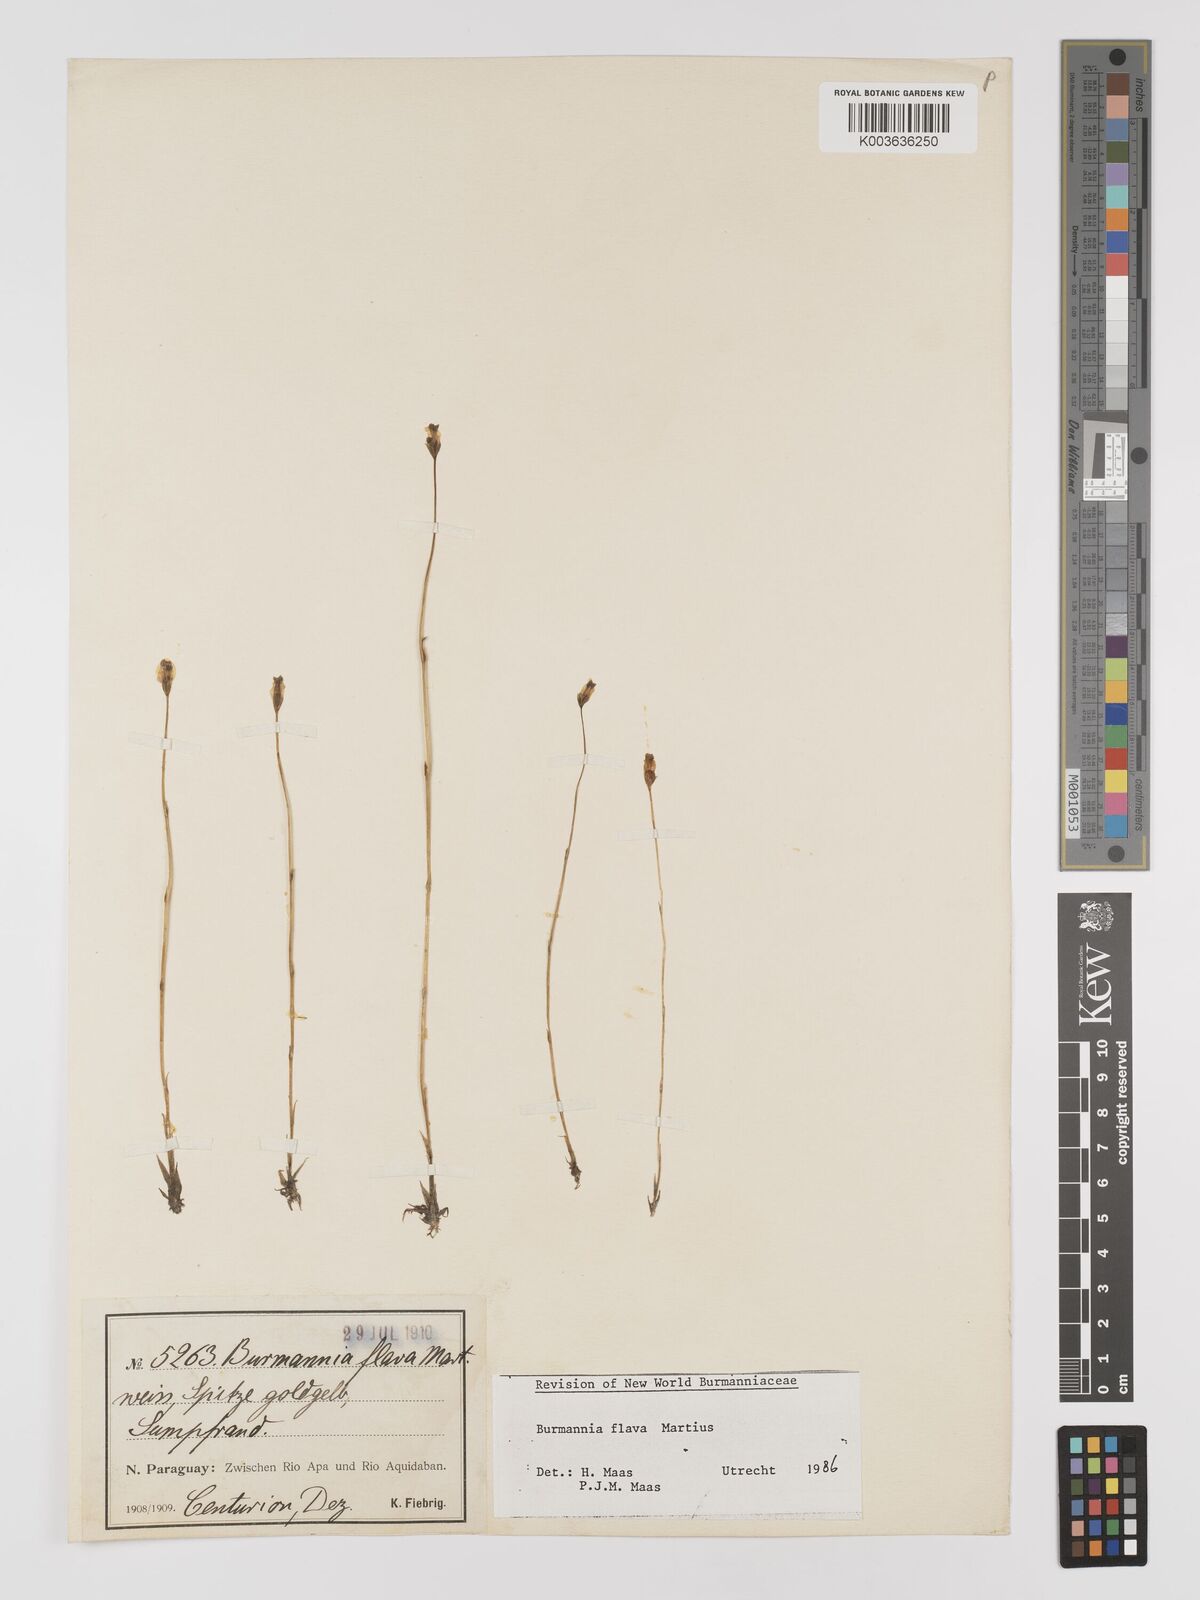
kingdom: Plantae
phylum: Tracheophyta
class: Liliopsida
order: Dioscoreales
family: Burmanniaceae
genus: Burmannia
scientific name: Burmannia flava
